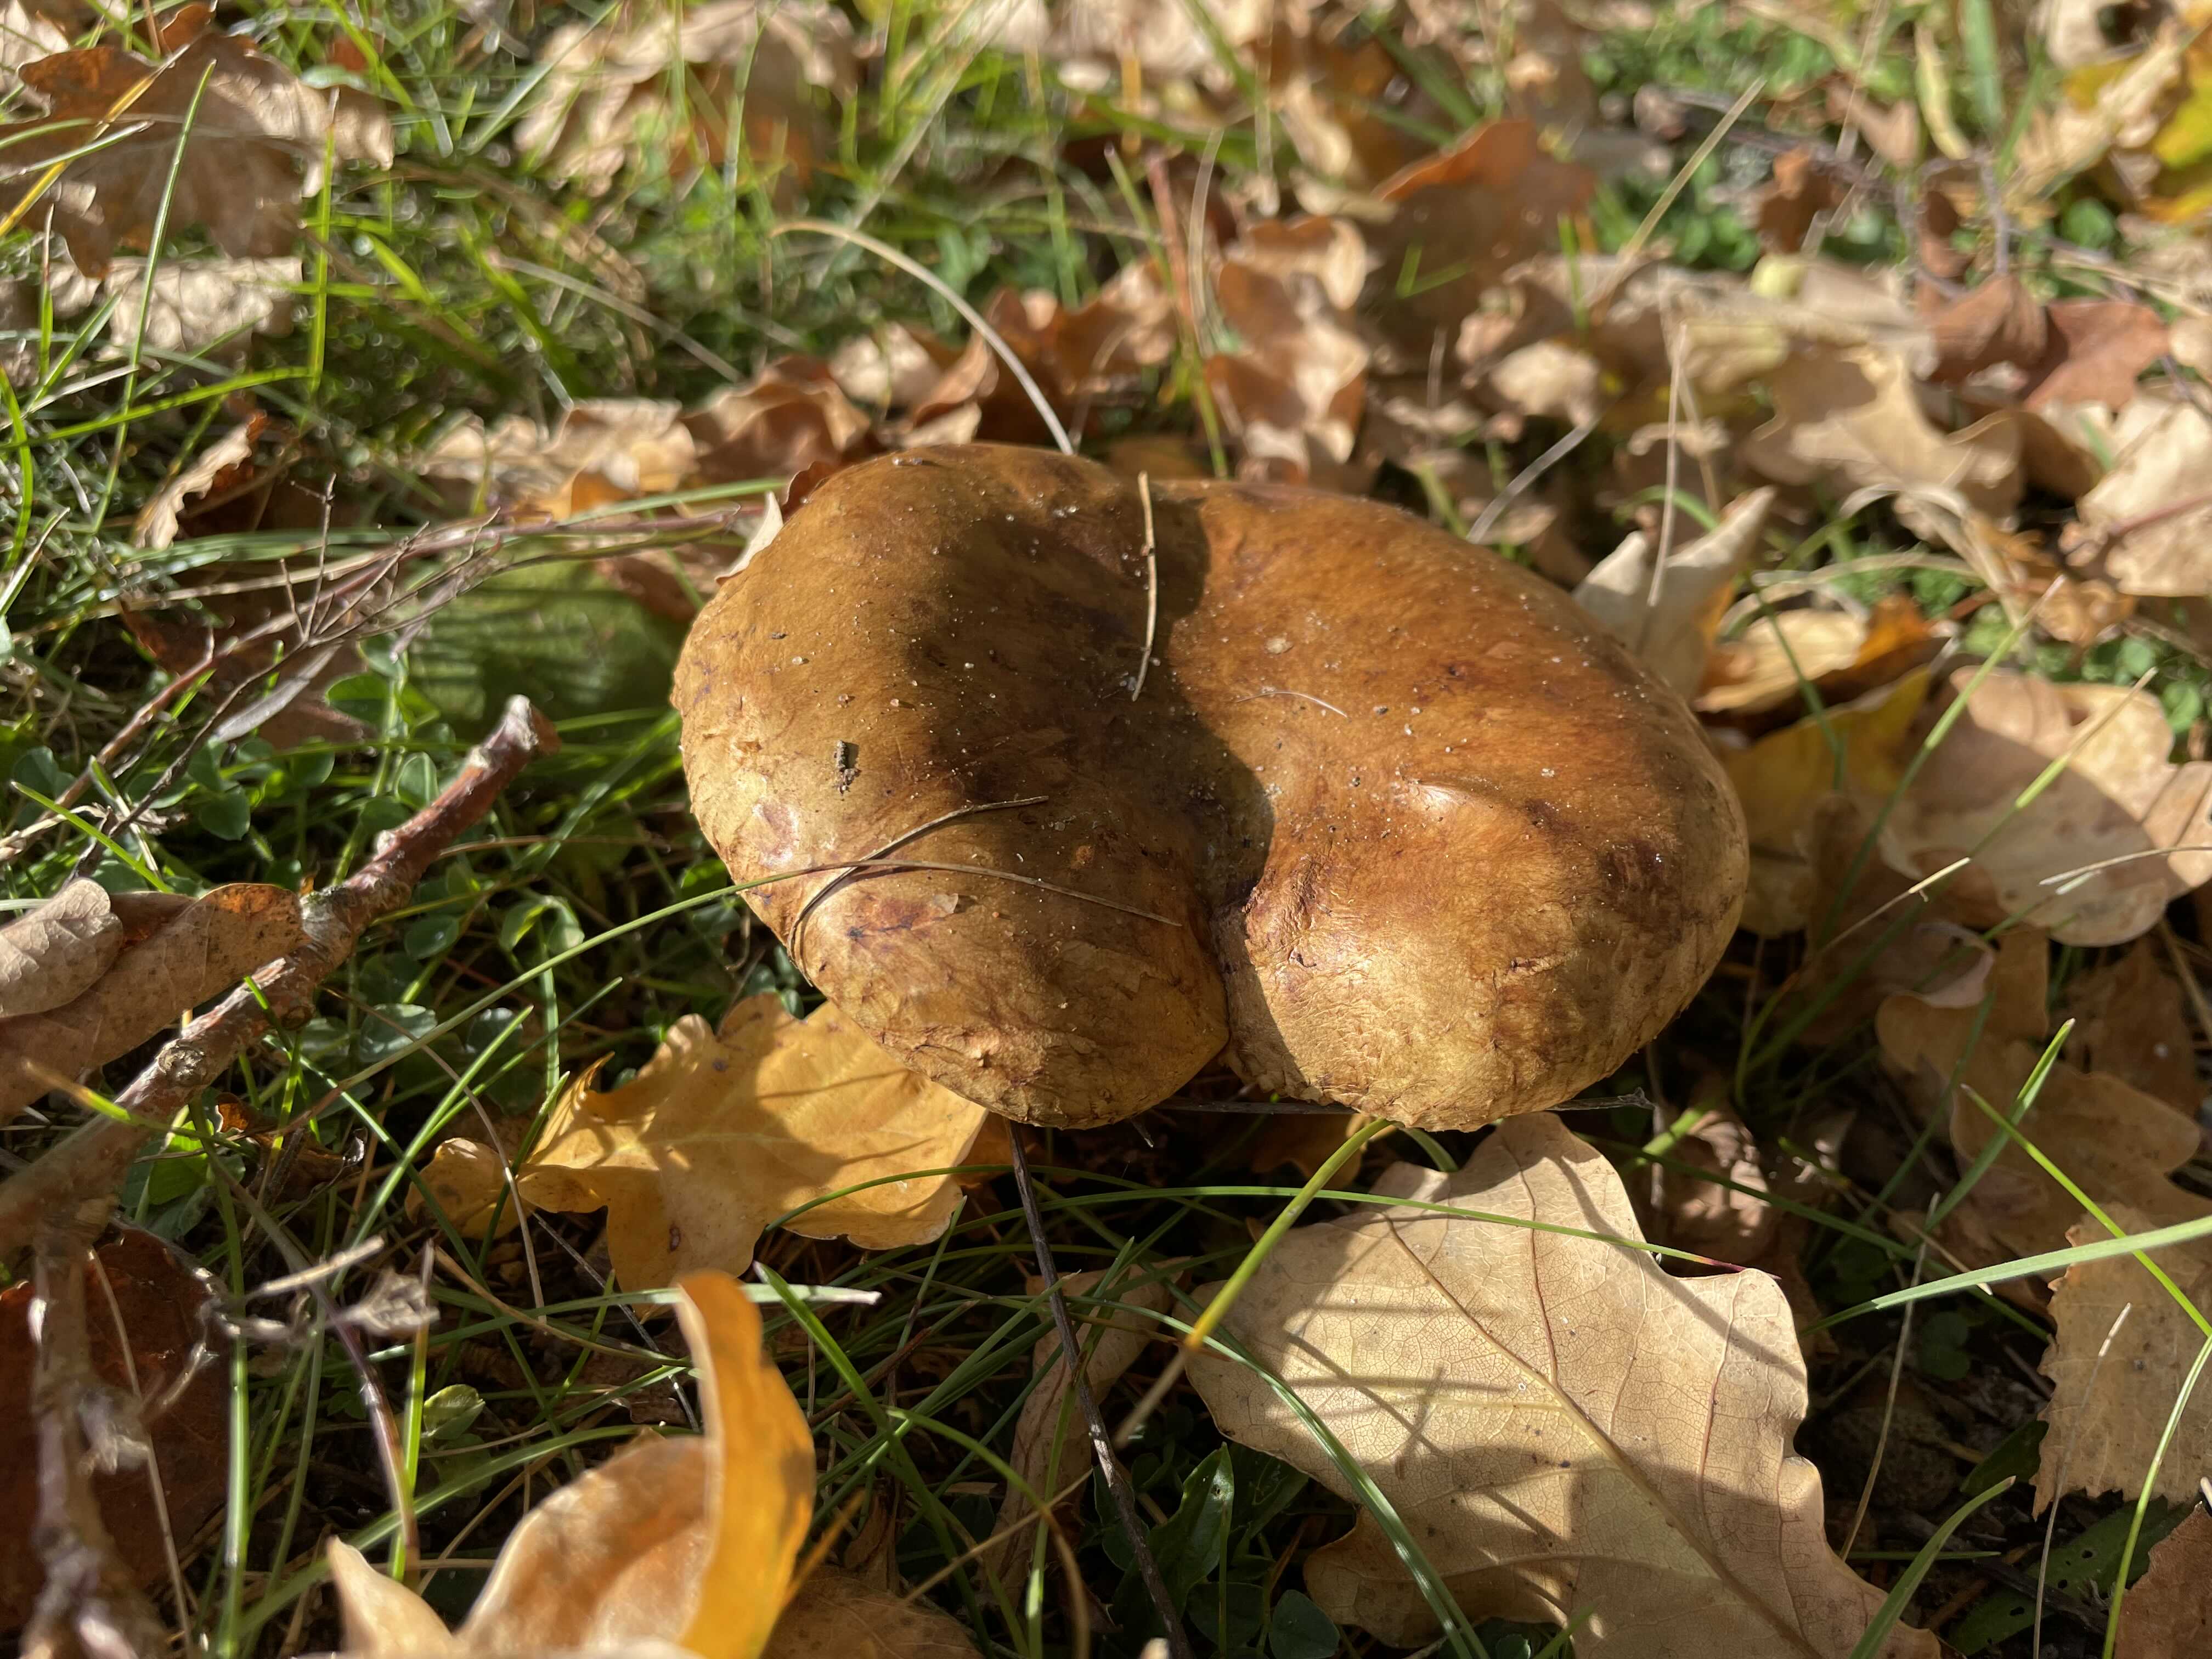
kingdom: Fungi
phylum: Basidiomycota
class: Agaricomycetes
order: Boletales
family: Paxillaceae
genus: Paxillus
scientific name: Paxillus involutus
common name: almindelig netbladhat
